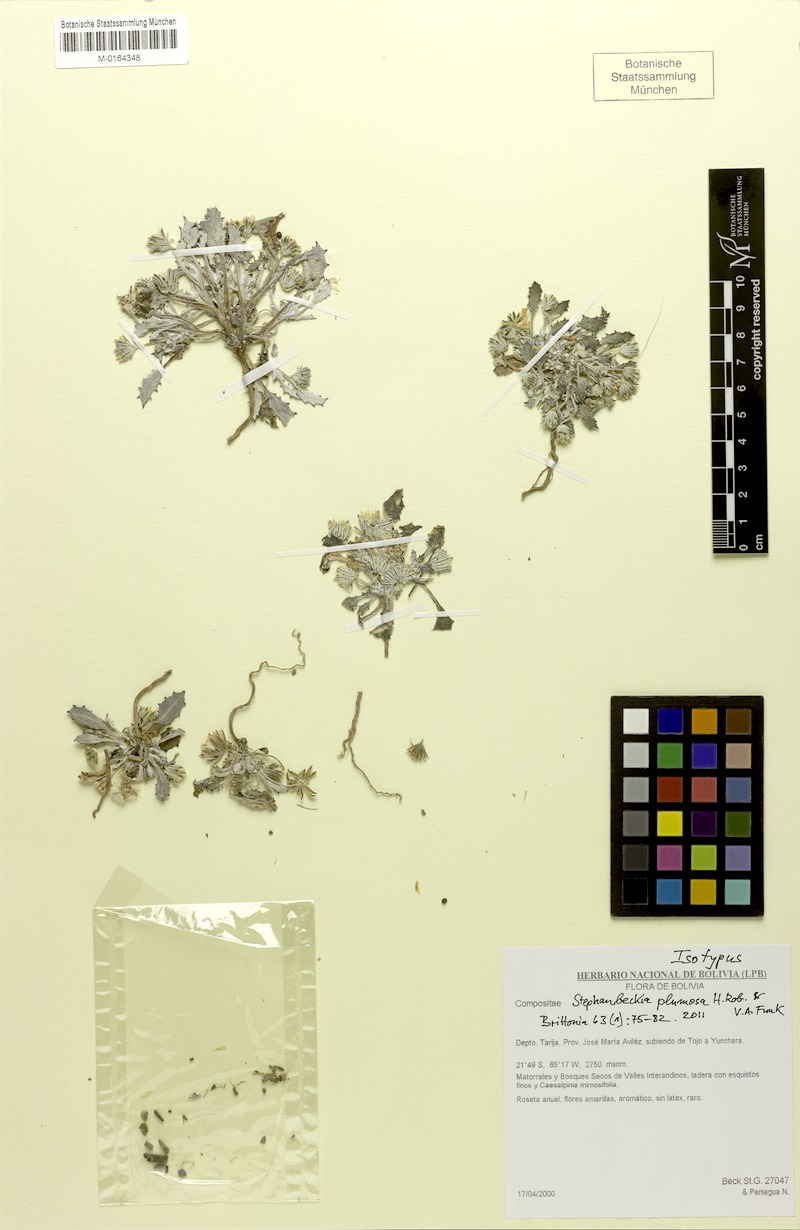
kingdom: Plantae
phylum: Tracheophyta
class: Magnoliopsida
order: Asterales
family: Asteraceae
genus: Stephanbeckia
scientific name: Stephanbeckia plumosa
